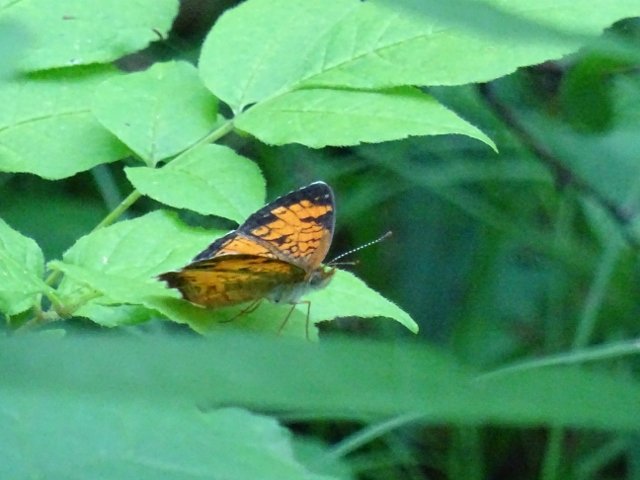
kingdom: Animalia
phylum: Arthropoda
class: Insecta
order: Lepidoptera
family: Nymphalidae
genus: Phyciodes
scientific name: Phyciodes tharos
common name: Pearl Crescent
